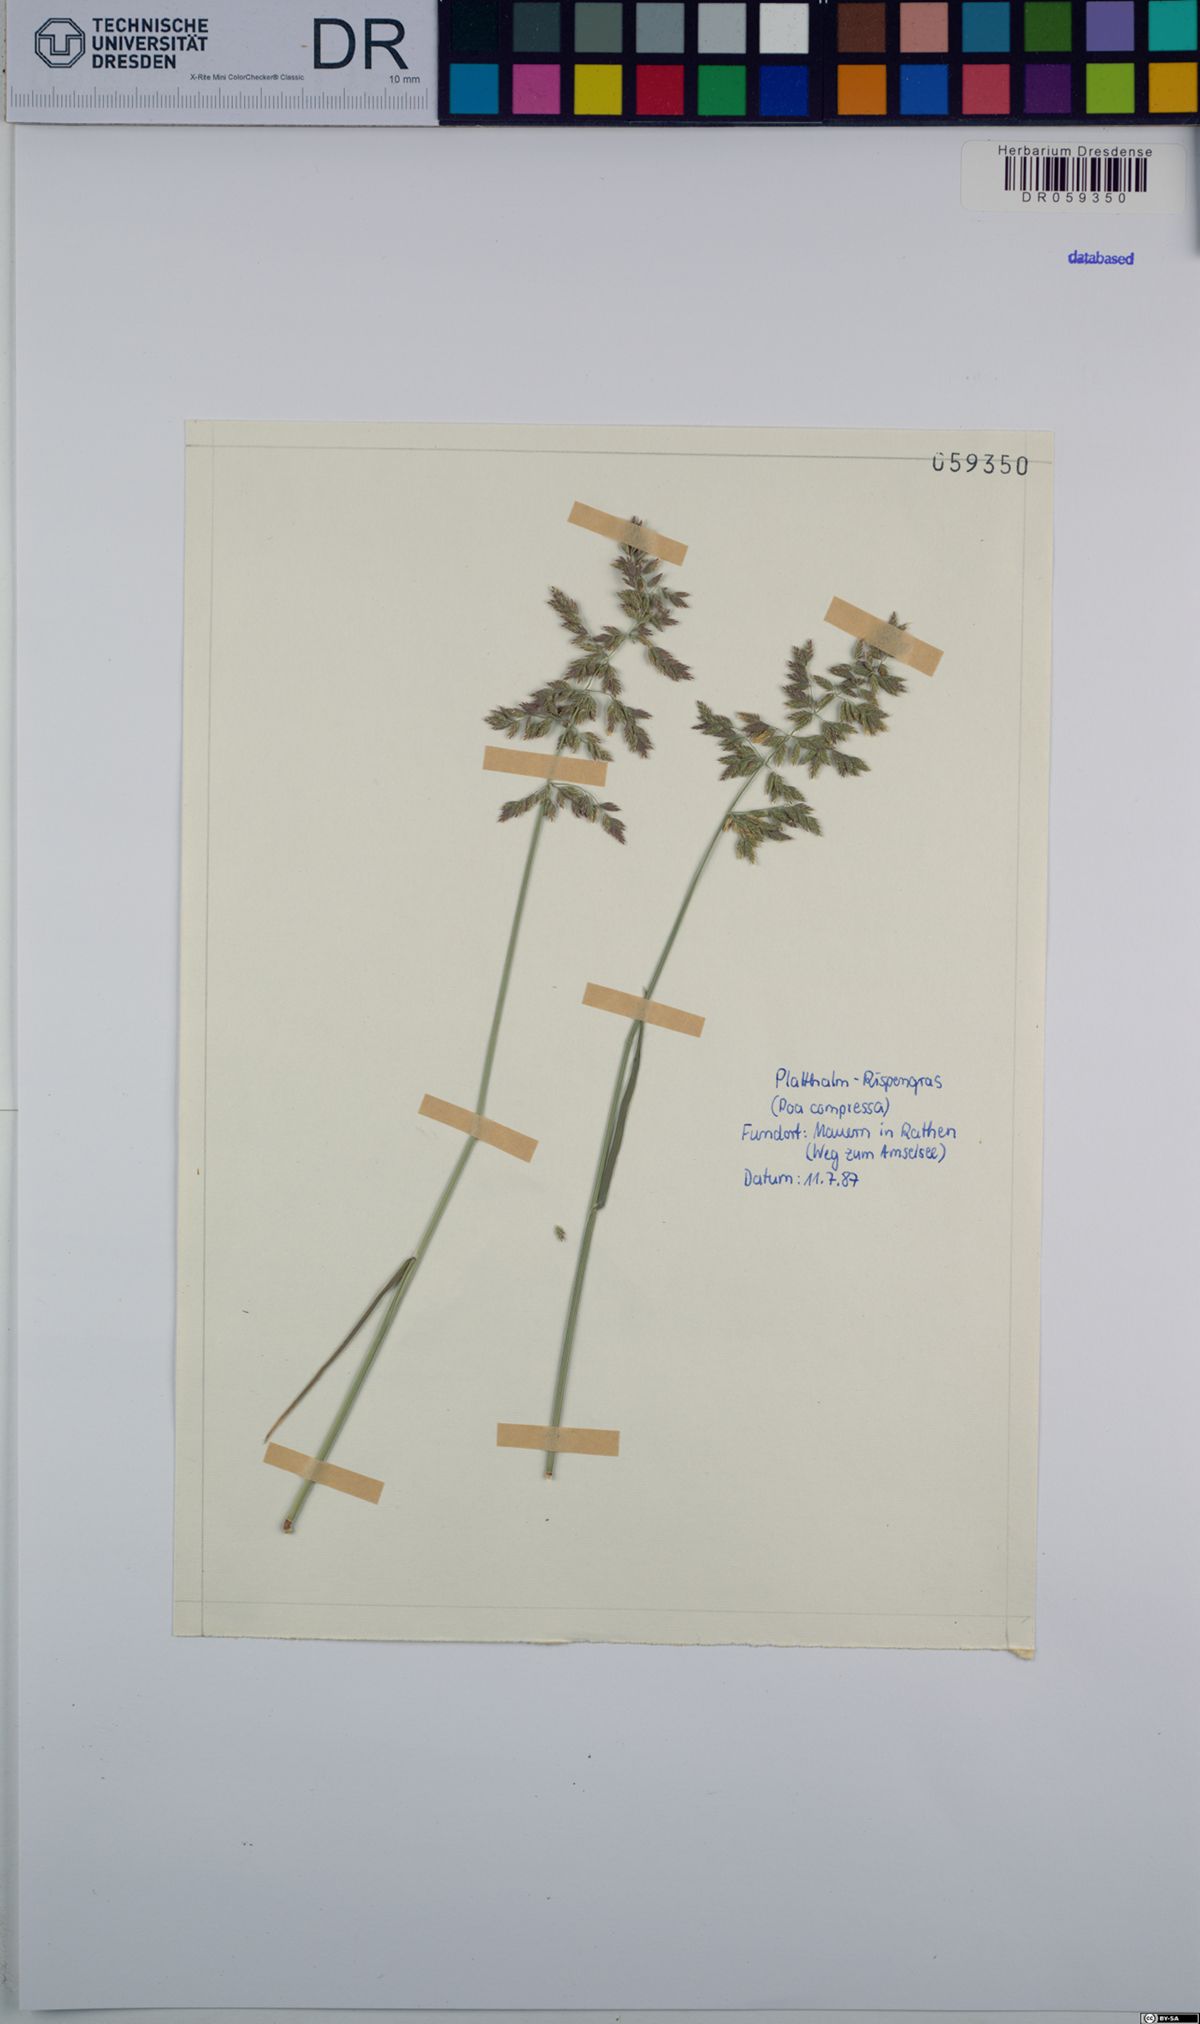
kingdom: Plantae
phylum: Tracheophyta
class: Liliopsida
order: Poales
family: Poaceae
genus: Poa
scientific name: Poa compressa
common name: Canada bluegrass
